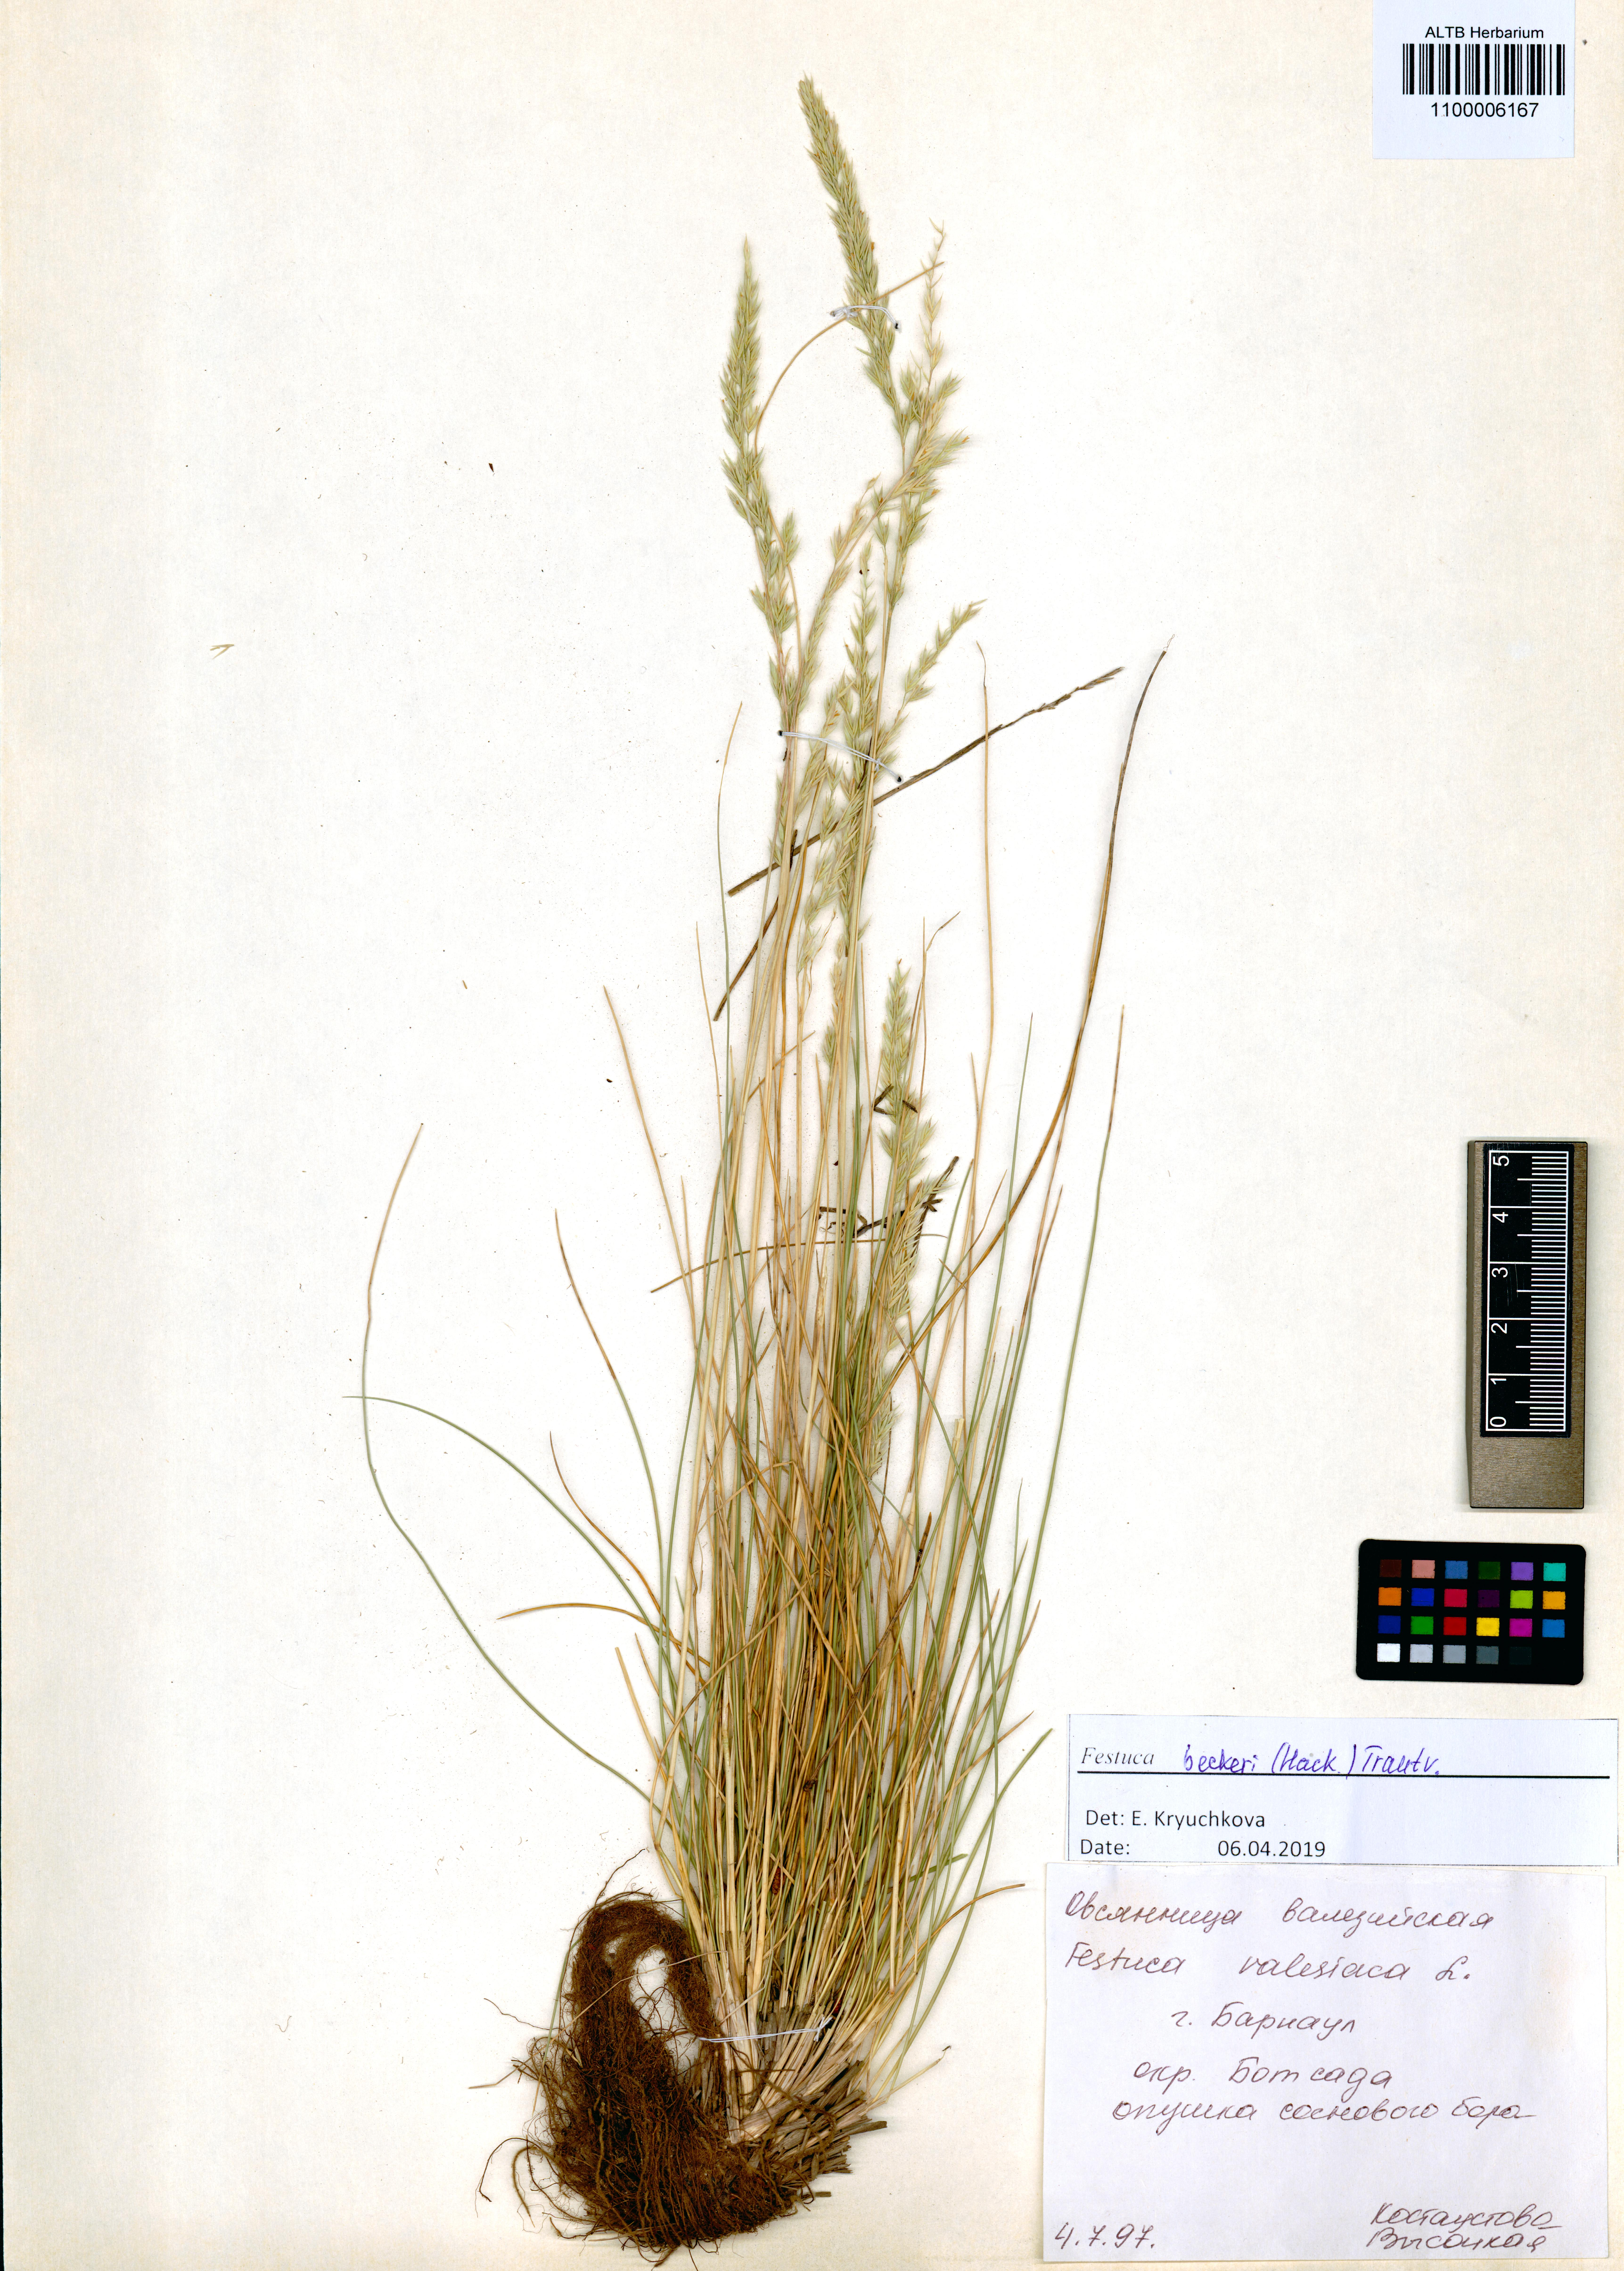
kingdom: Plantae
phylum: Tracheophyta
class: Liliopsida
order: Poales
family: Poaceae
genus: Festuca
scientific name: Festuca beckeri
